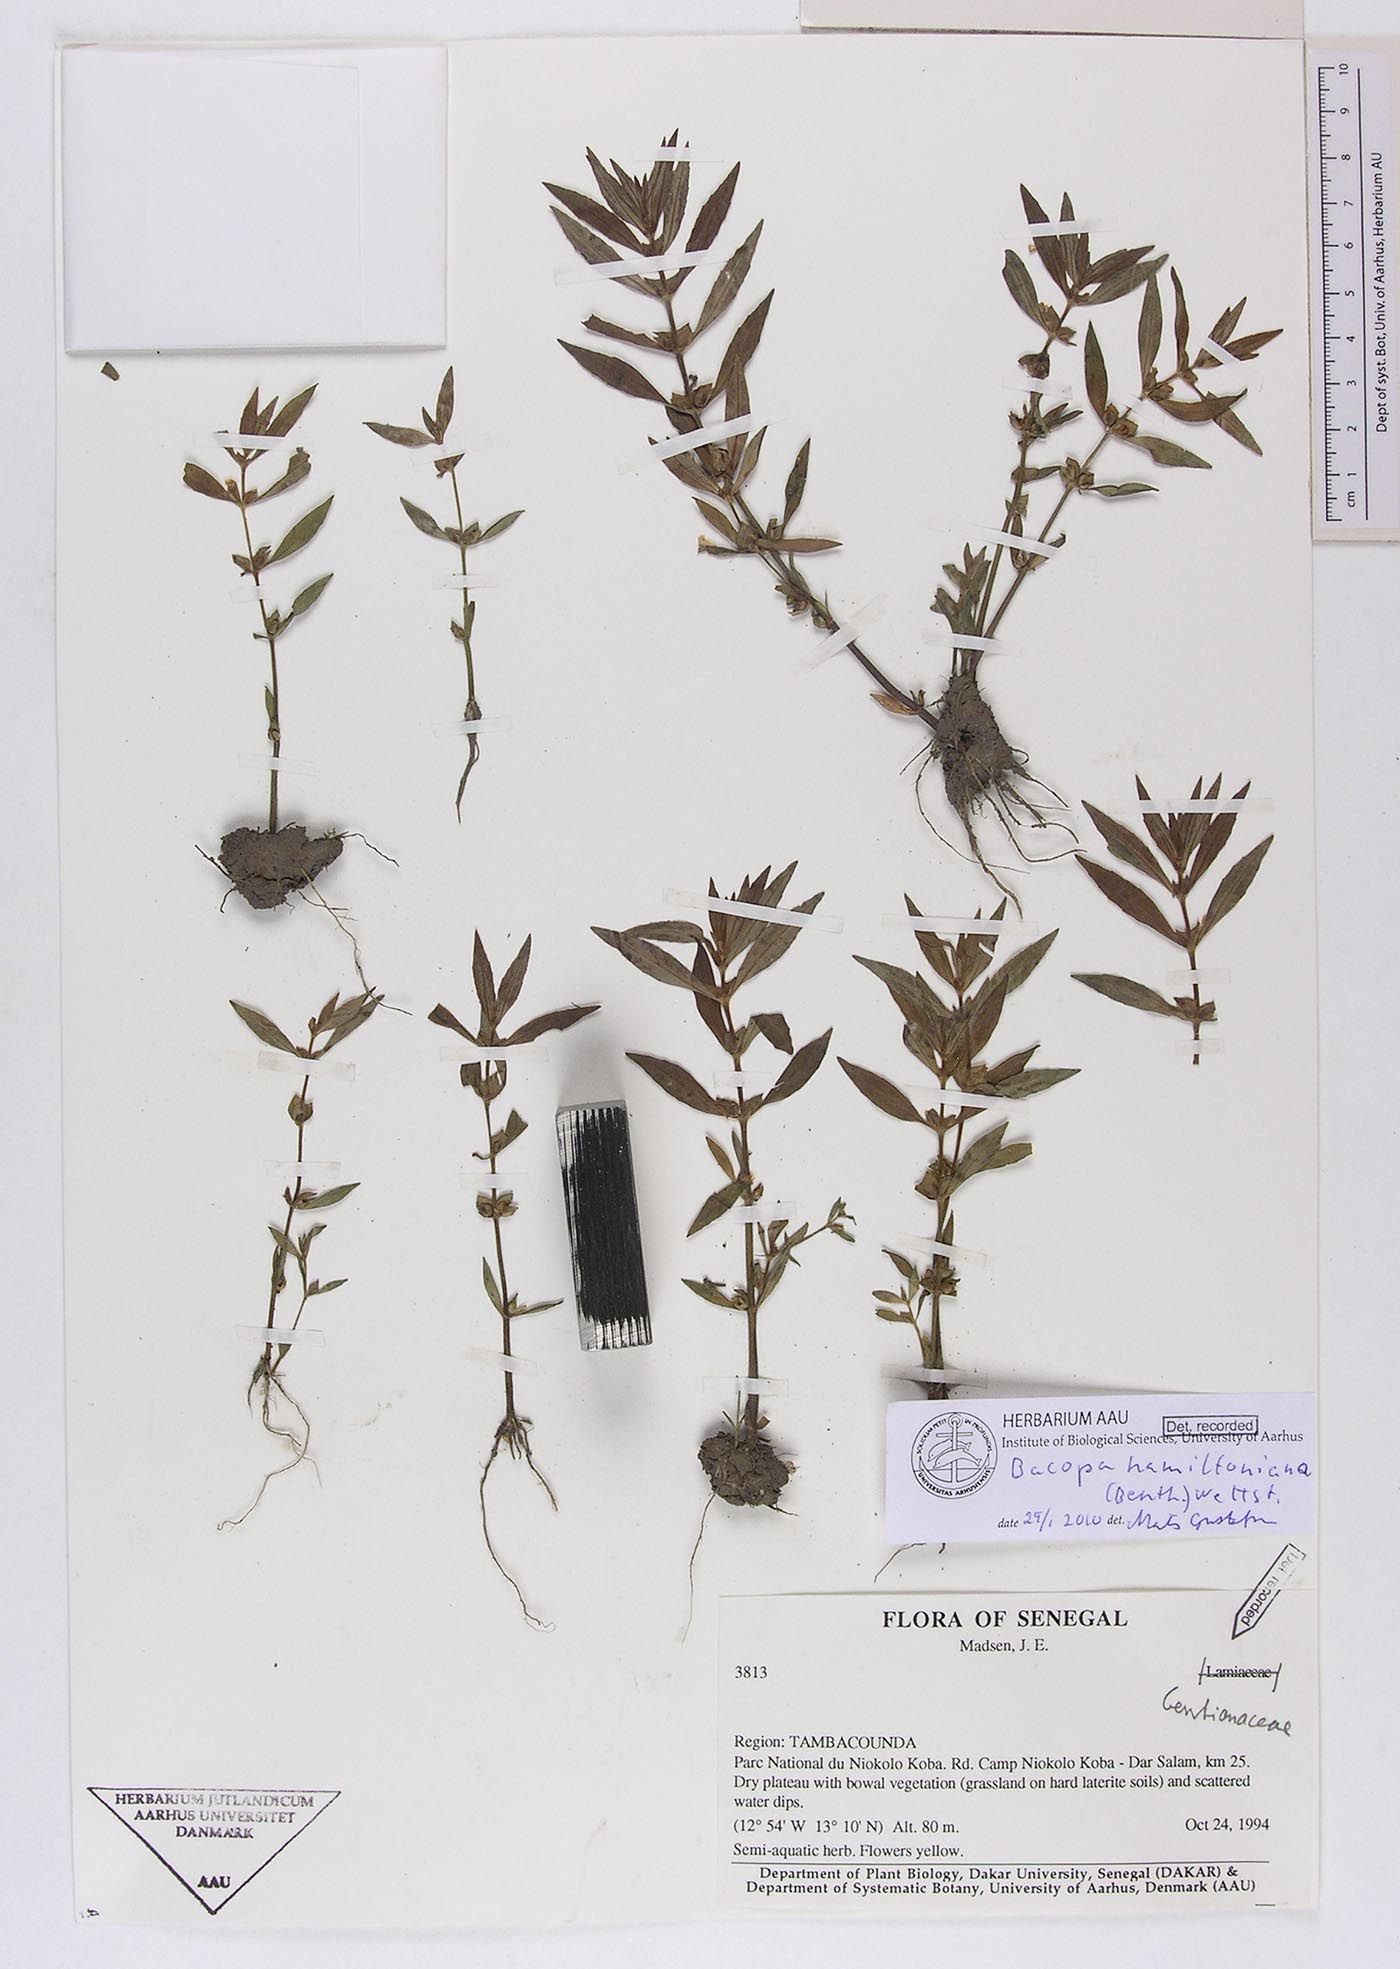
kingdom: Plantae
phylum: Tracheophyta
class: Magnoliopsida
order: Lamiales
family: Plantaginaceae
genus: Bacopa
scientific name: Bacopa hamiltoniana
